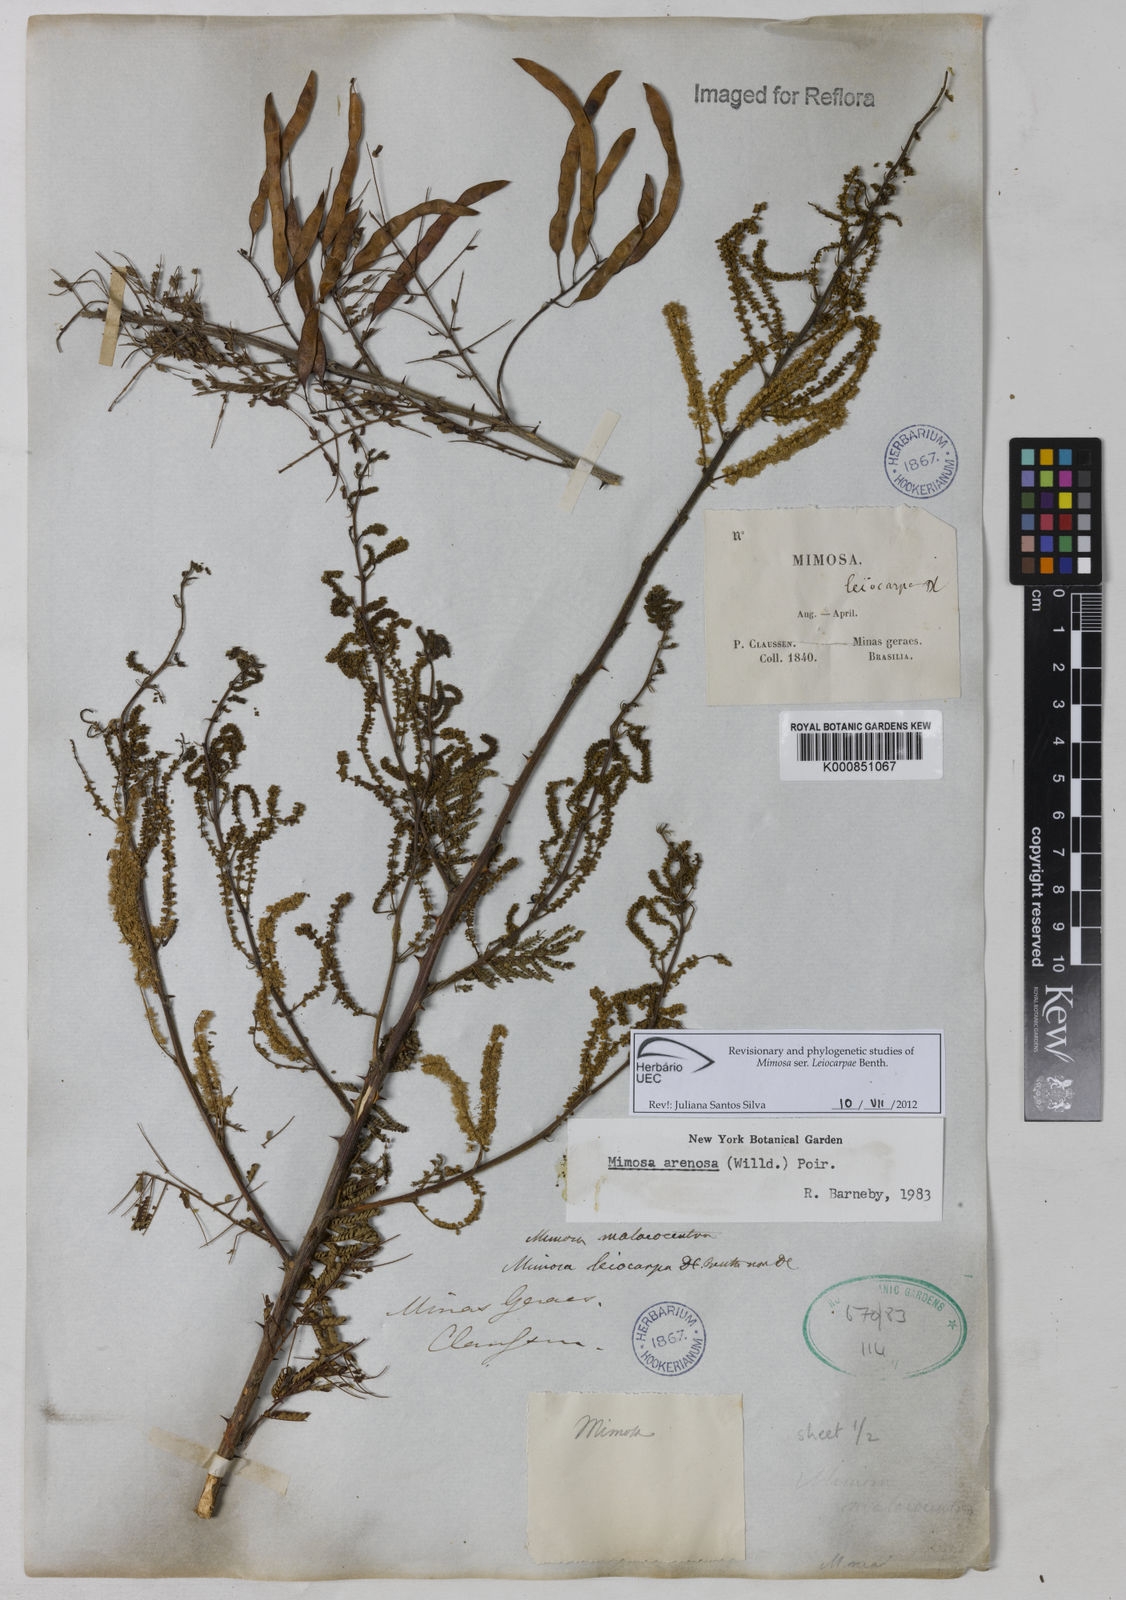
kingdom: Plantae
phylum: Tracheophyta
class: Magnoliopsida
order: Fabales
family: Fabaceae
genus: Mimosa
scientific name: Mimosa arenosa
